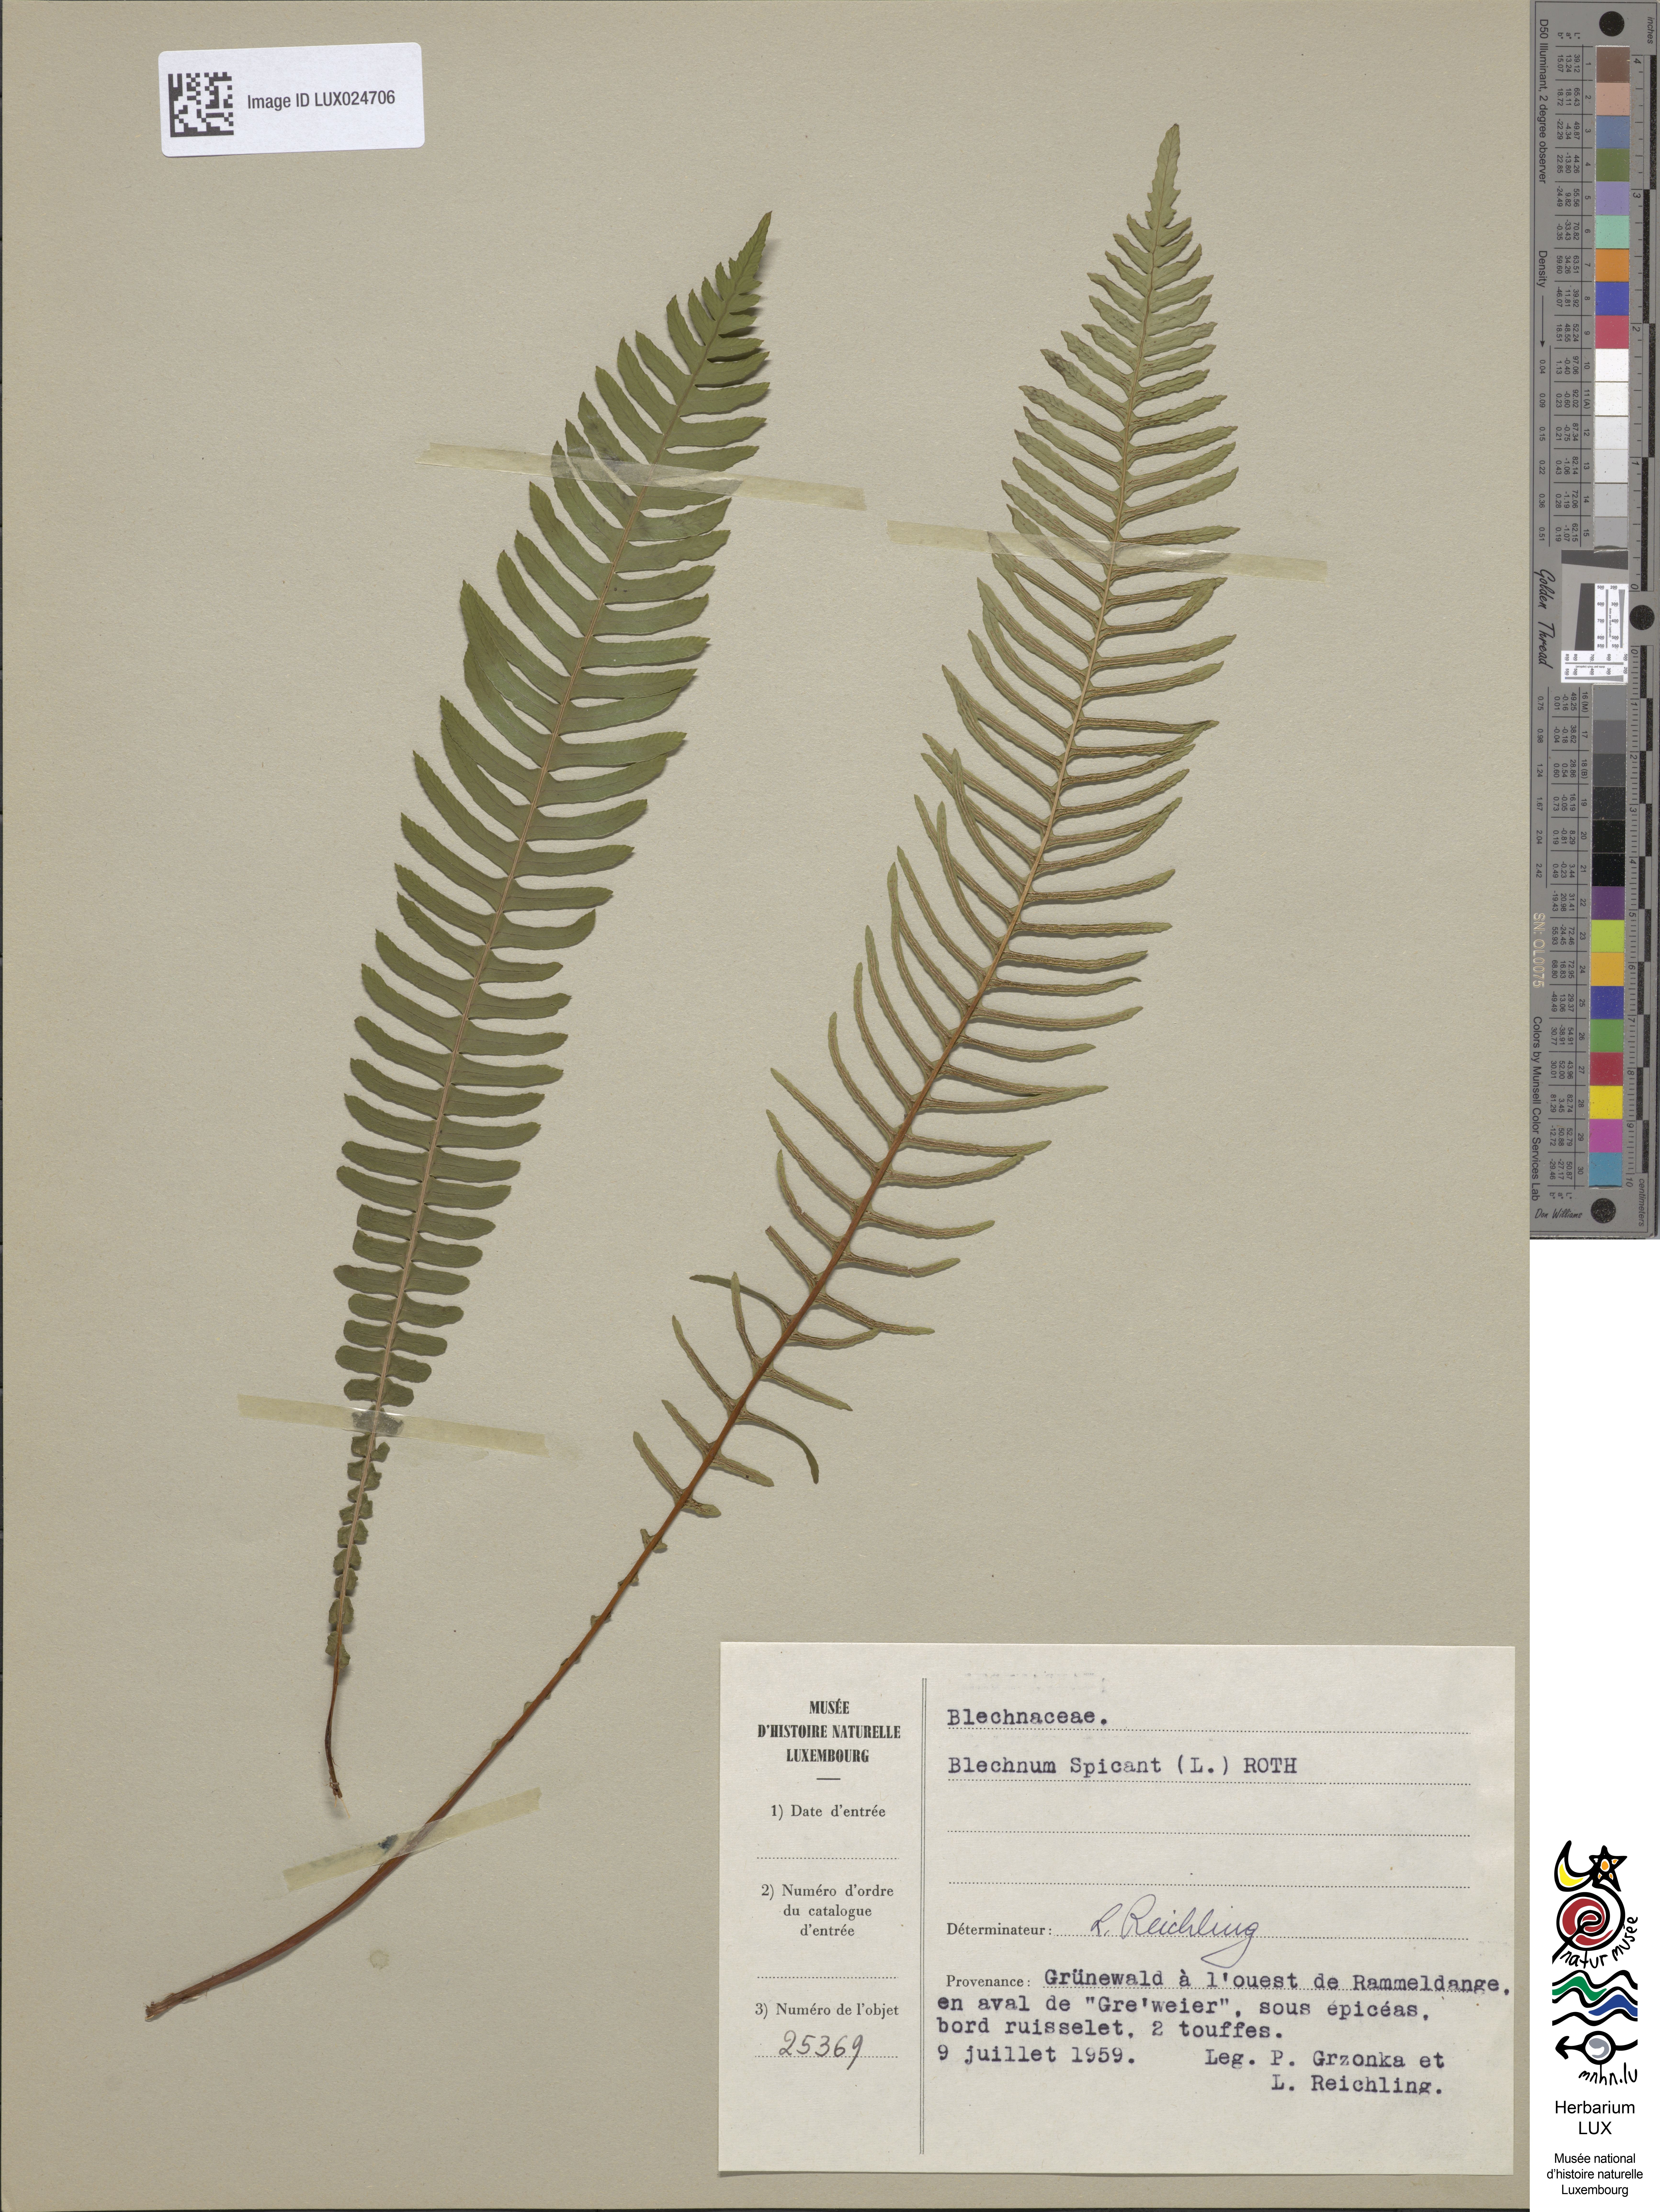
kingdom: Plantae
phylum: Tracheophyta
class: Polypodiopsida
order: Polypodiales
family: Blechnaceae
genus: Struthiopteris
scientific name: Struthiopteris spicant
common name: Deer fern
